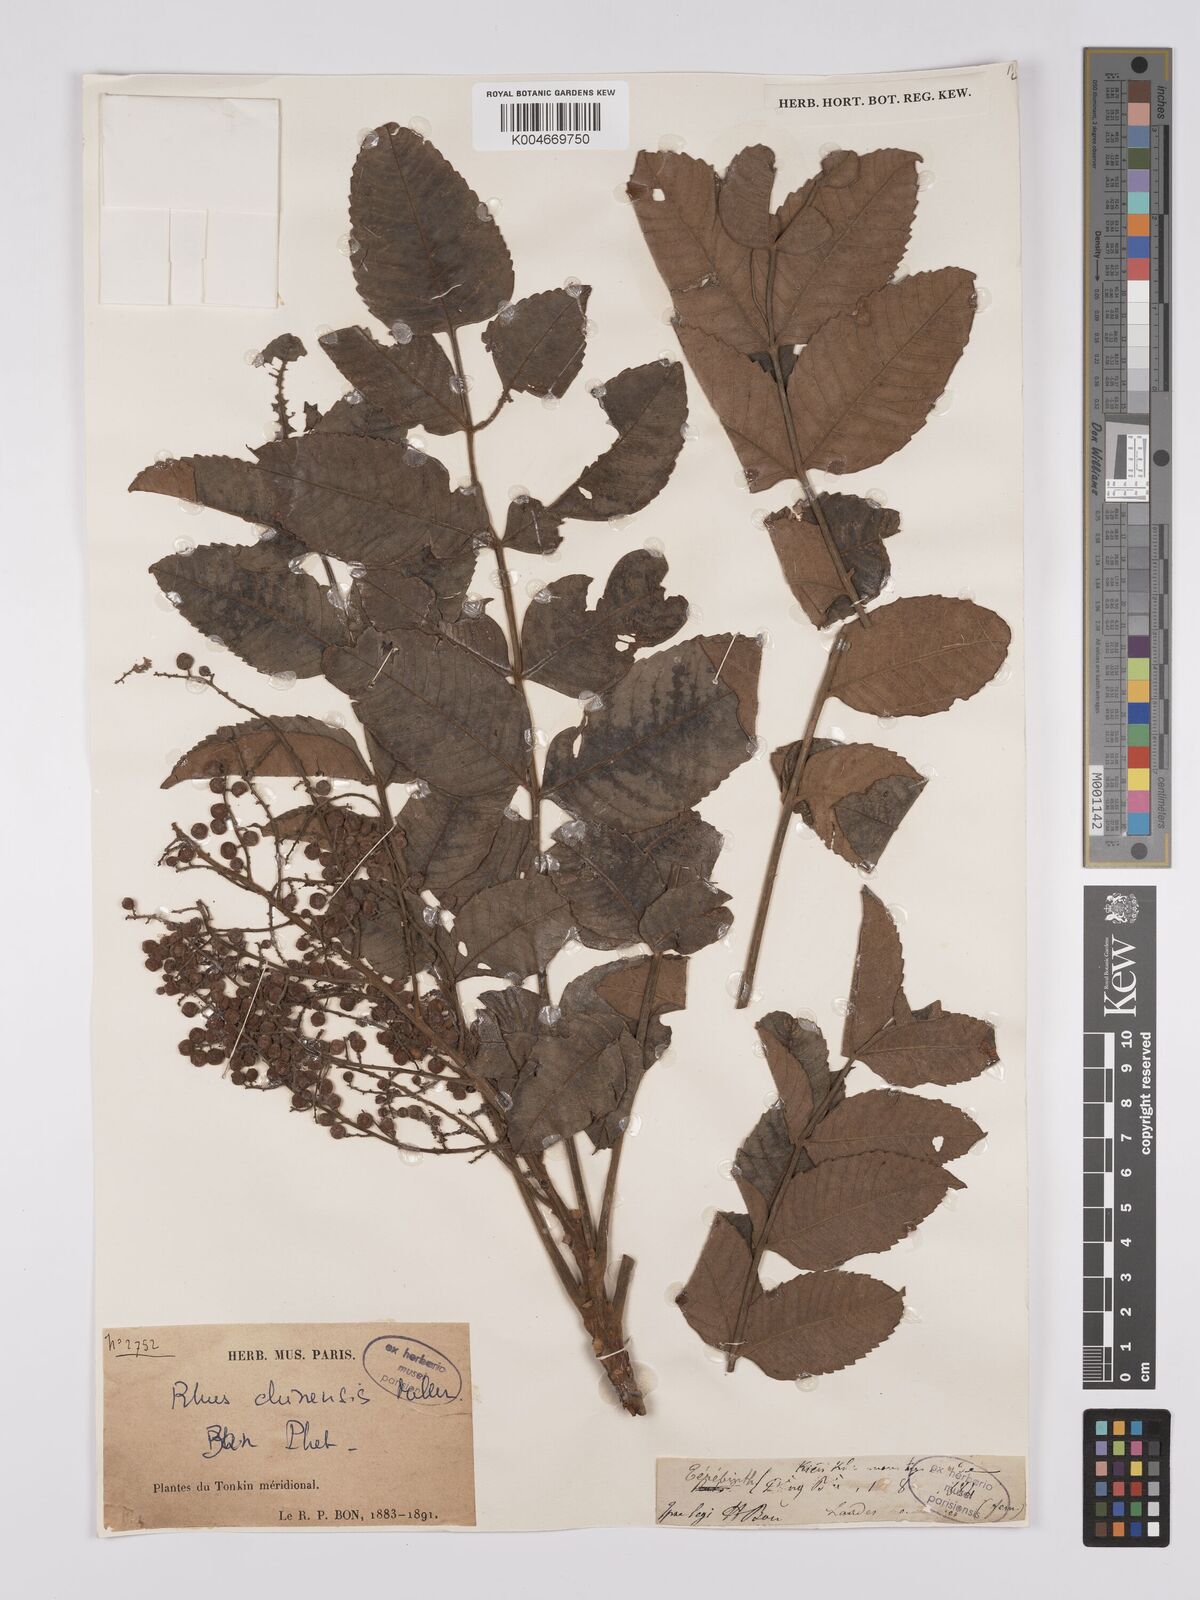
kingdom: Plantae
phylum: Tracheophyta
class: Magnoliopsida
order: Sapindales
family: Anacardiaceae
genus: Rhus
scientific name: Rhus chinensis
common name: Chinese gall
